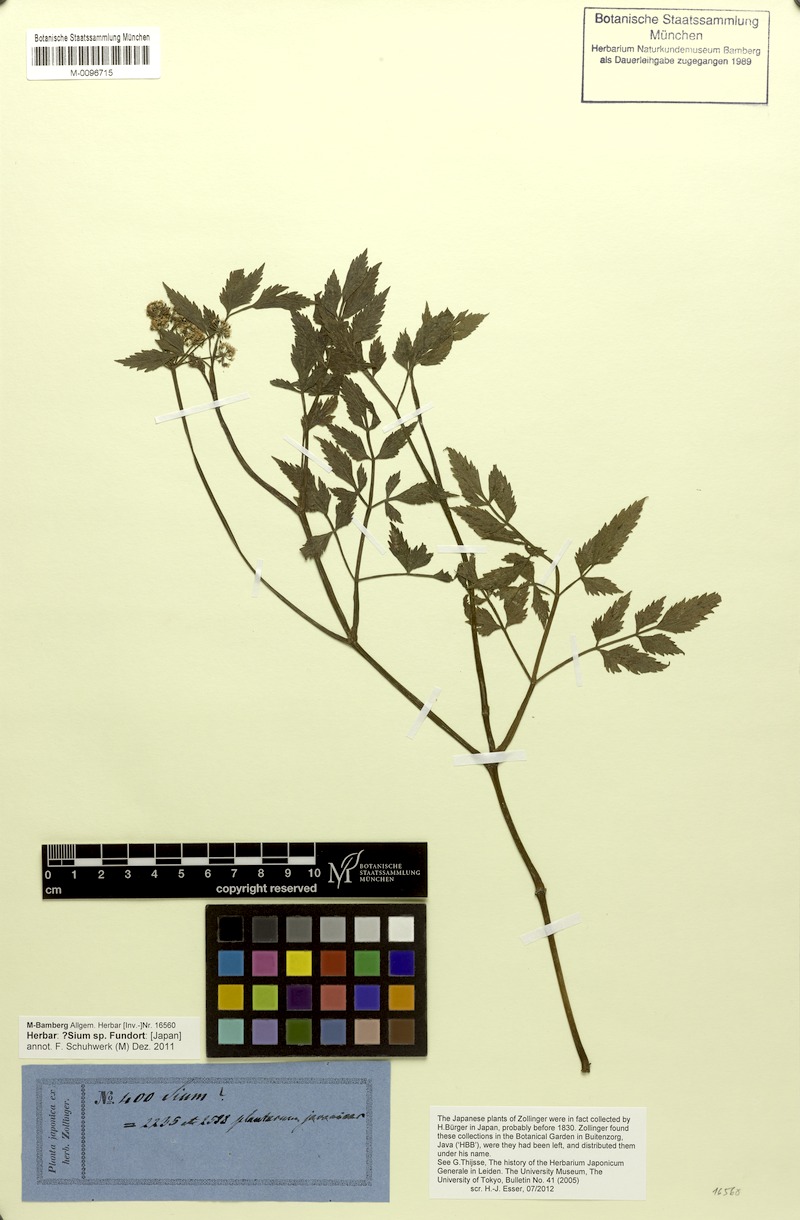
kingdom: Plantae
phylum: Tracheophyta
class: Magnoliopsida
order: Apiales
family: Apiaceae
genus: Sium
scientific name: Sium
